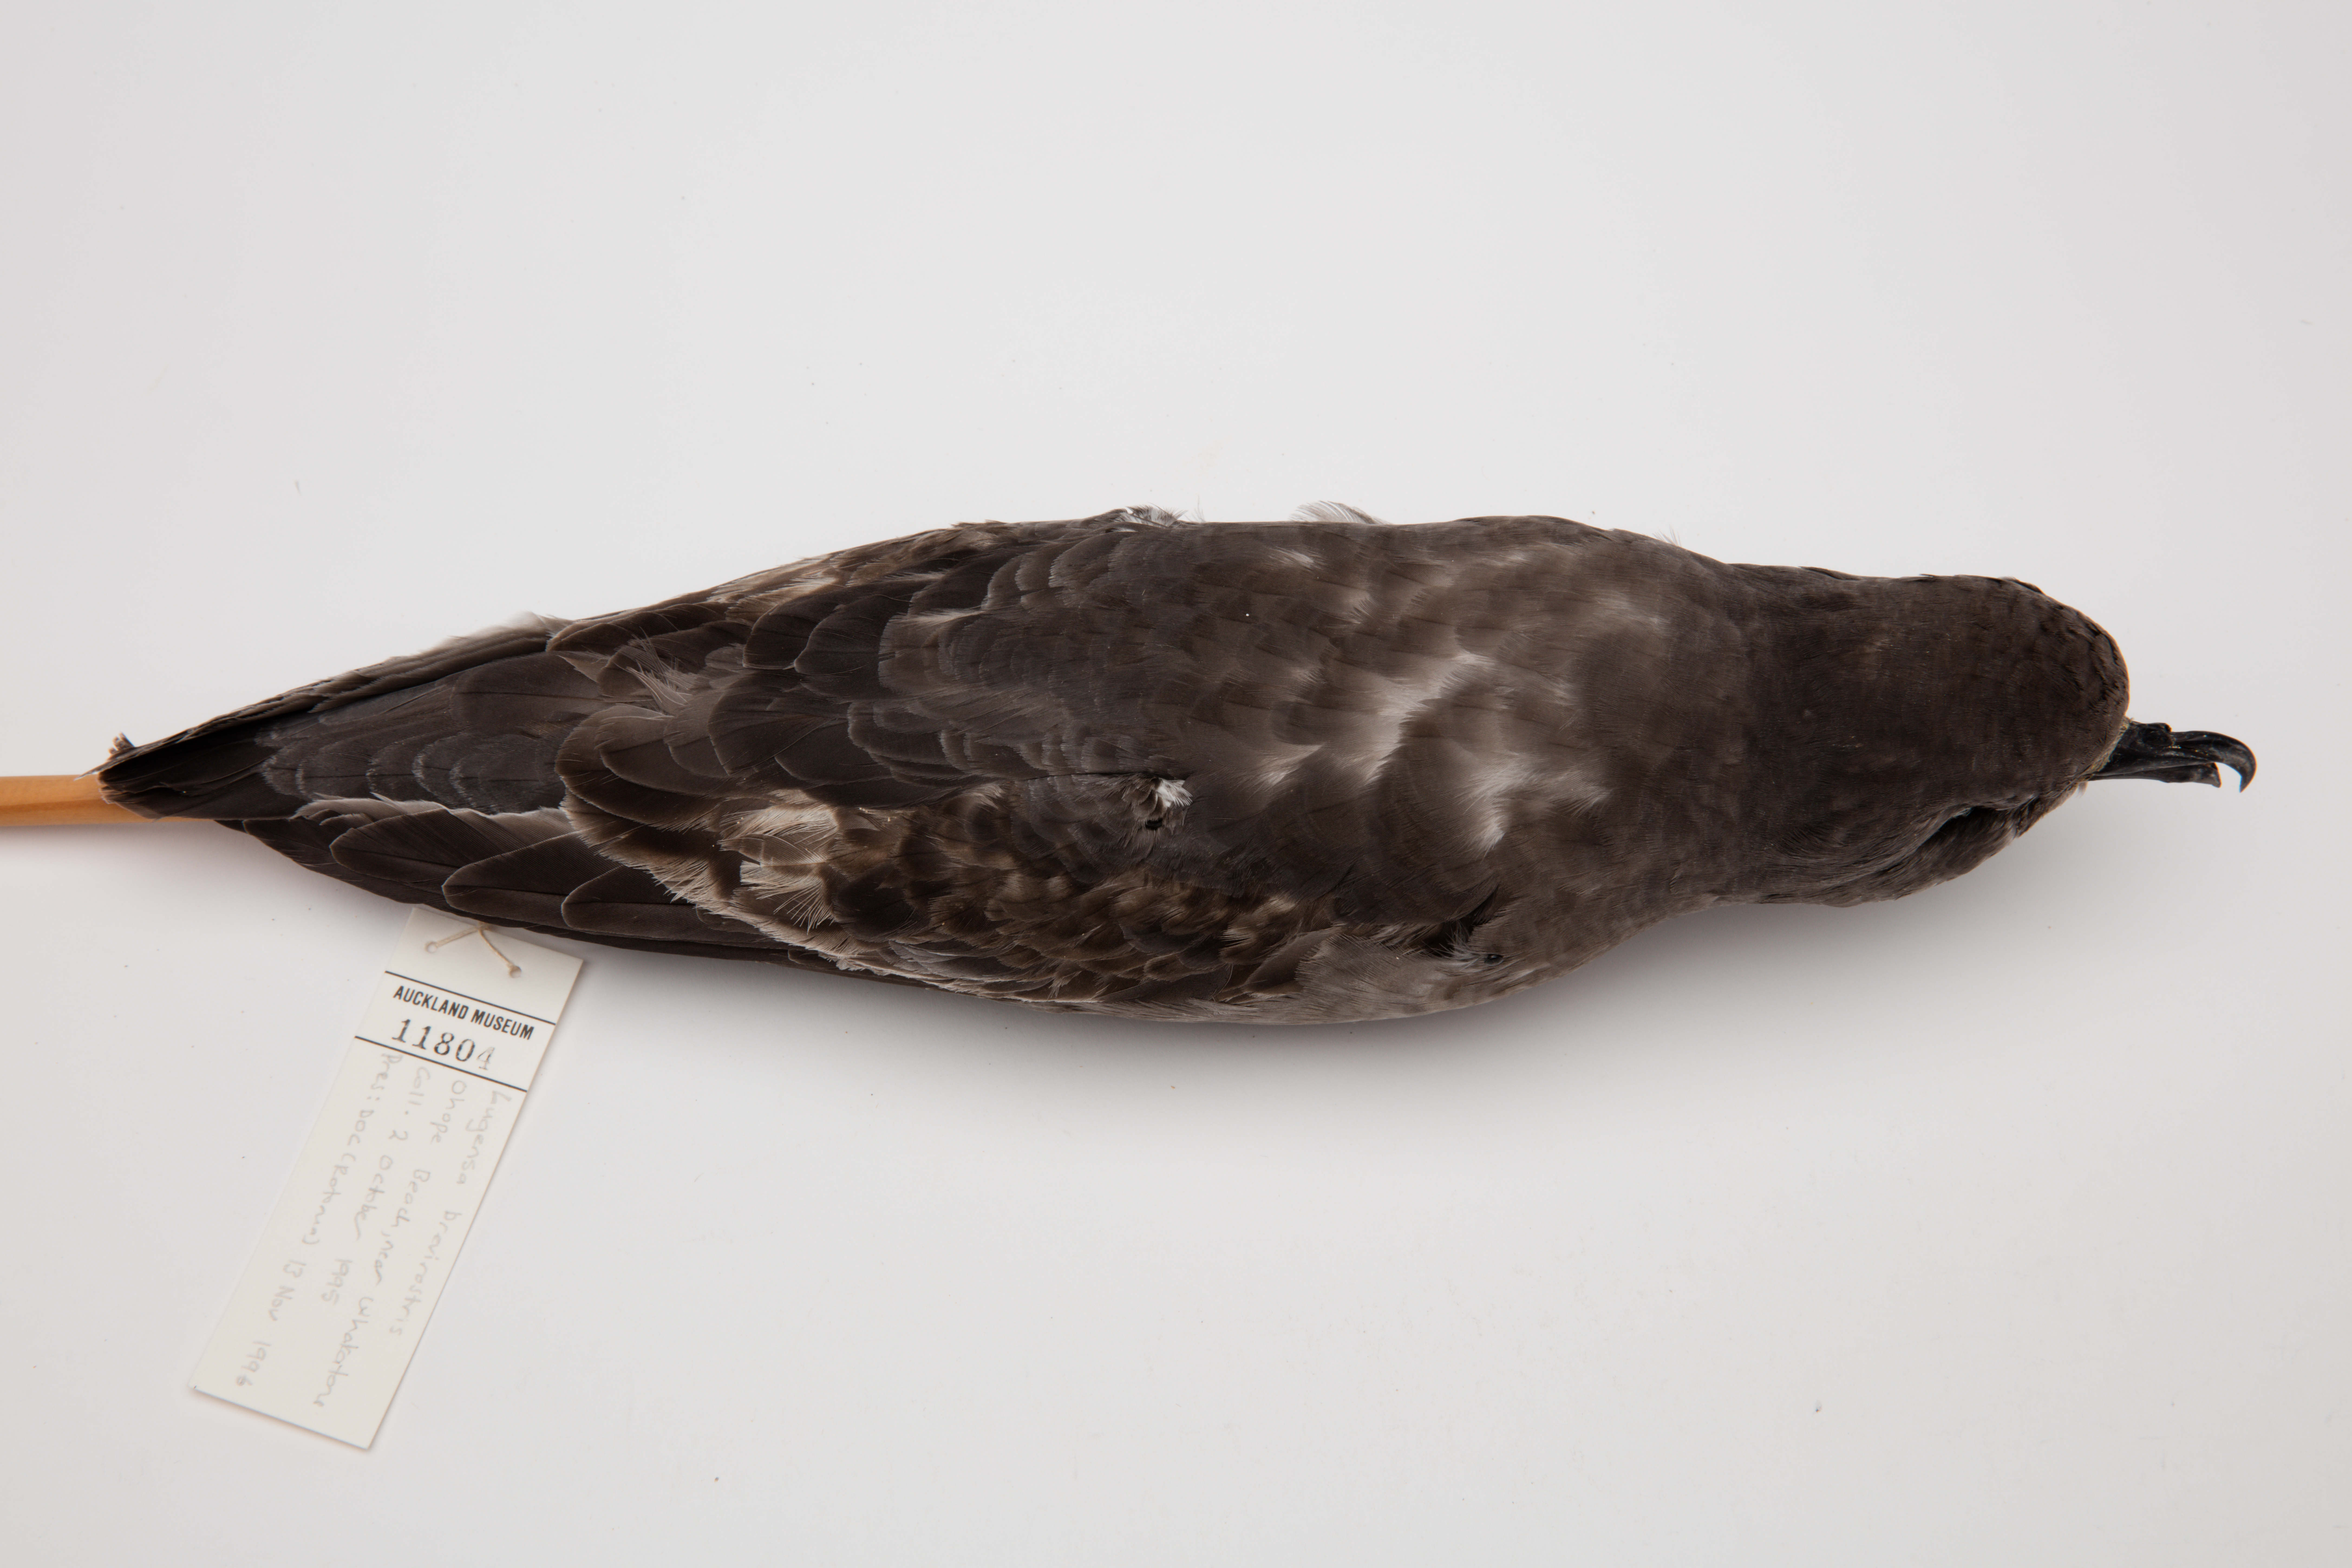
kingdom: Animalia
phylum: Chordata
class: Aves
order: Procellariiformes
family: Procellariidae
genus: Aphrodroma
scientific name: Aphrodroma brevirostris
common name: Kerguelen petrel
